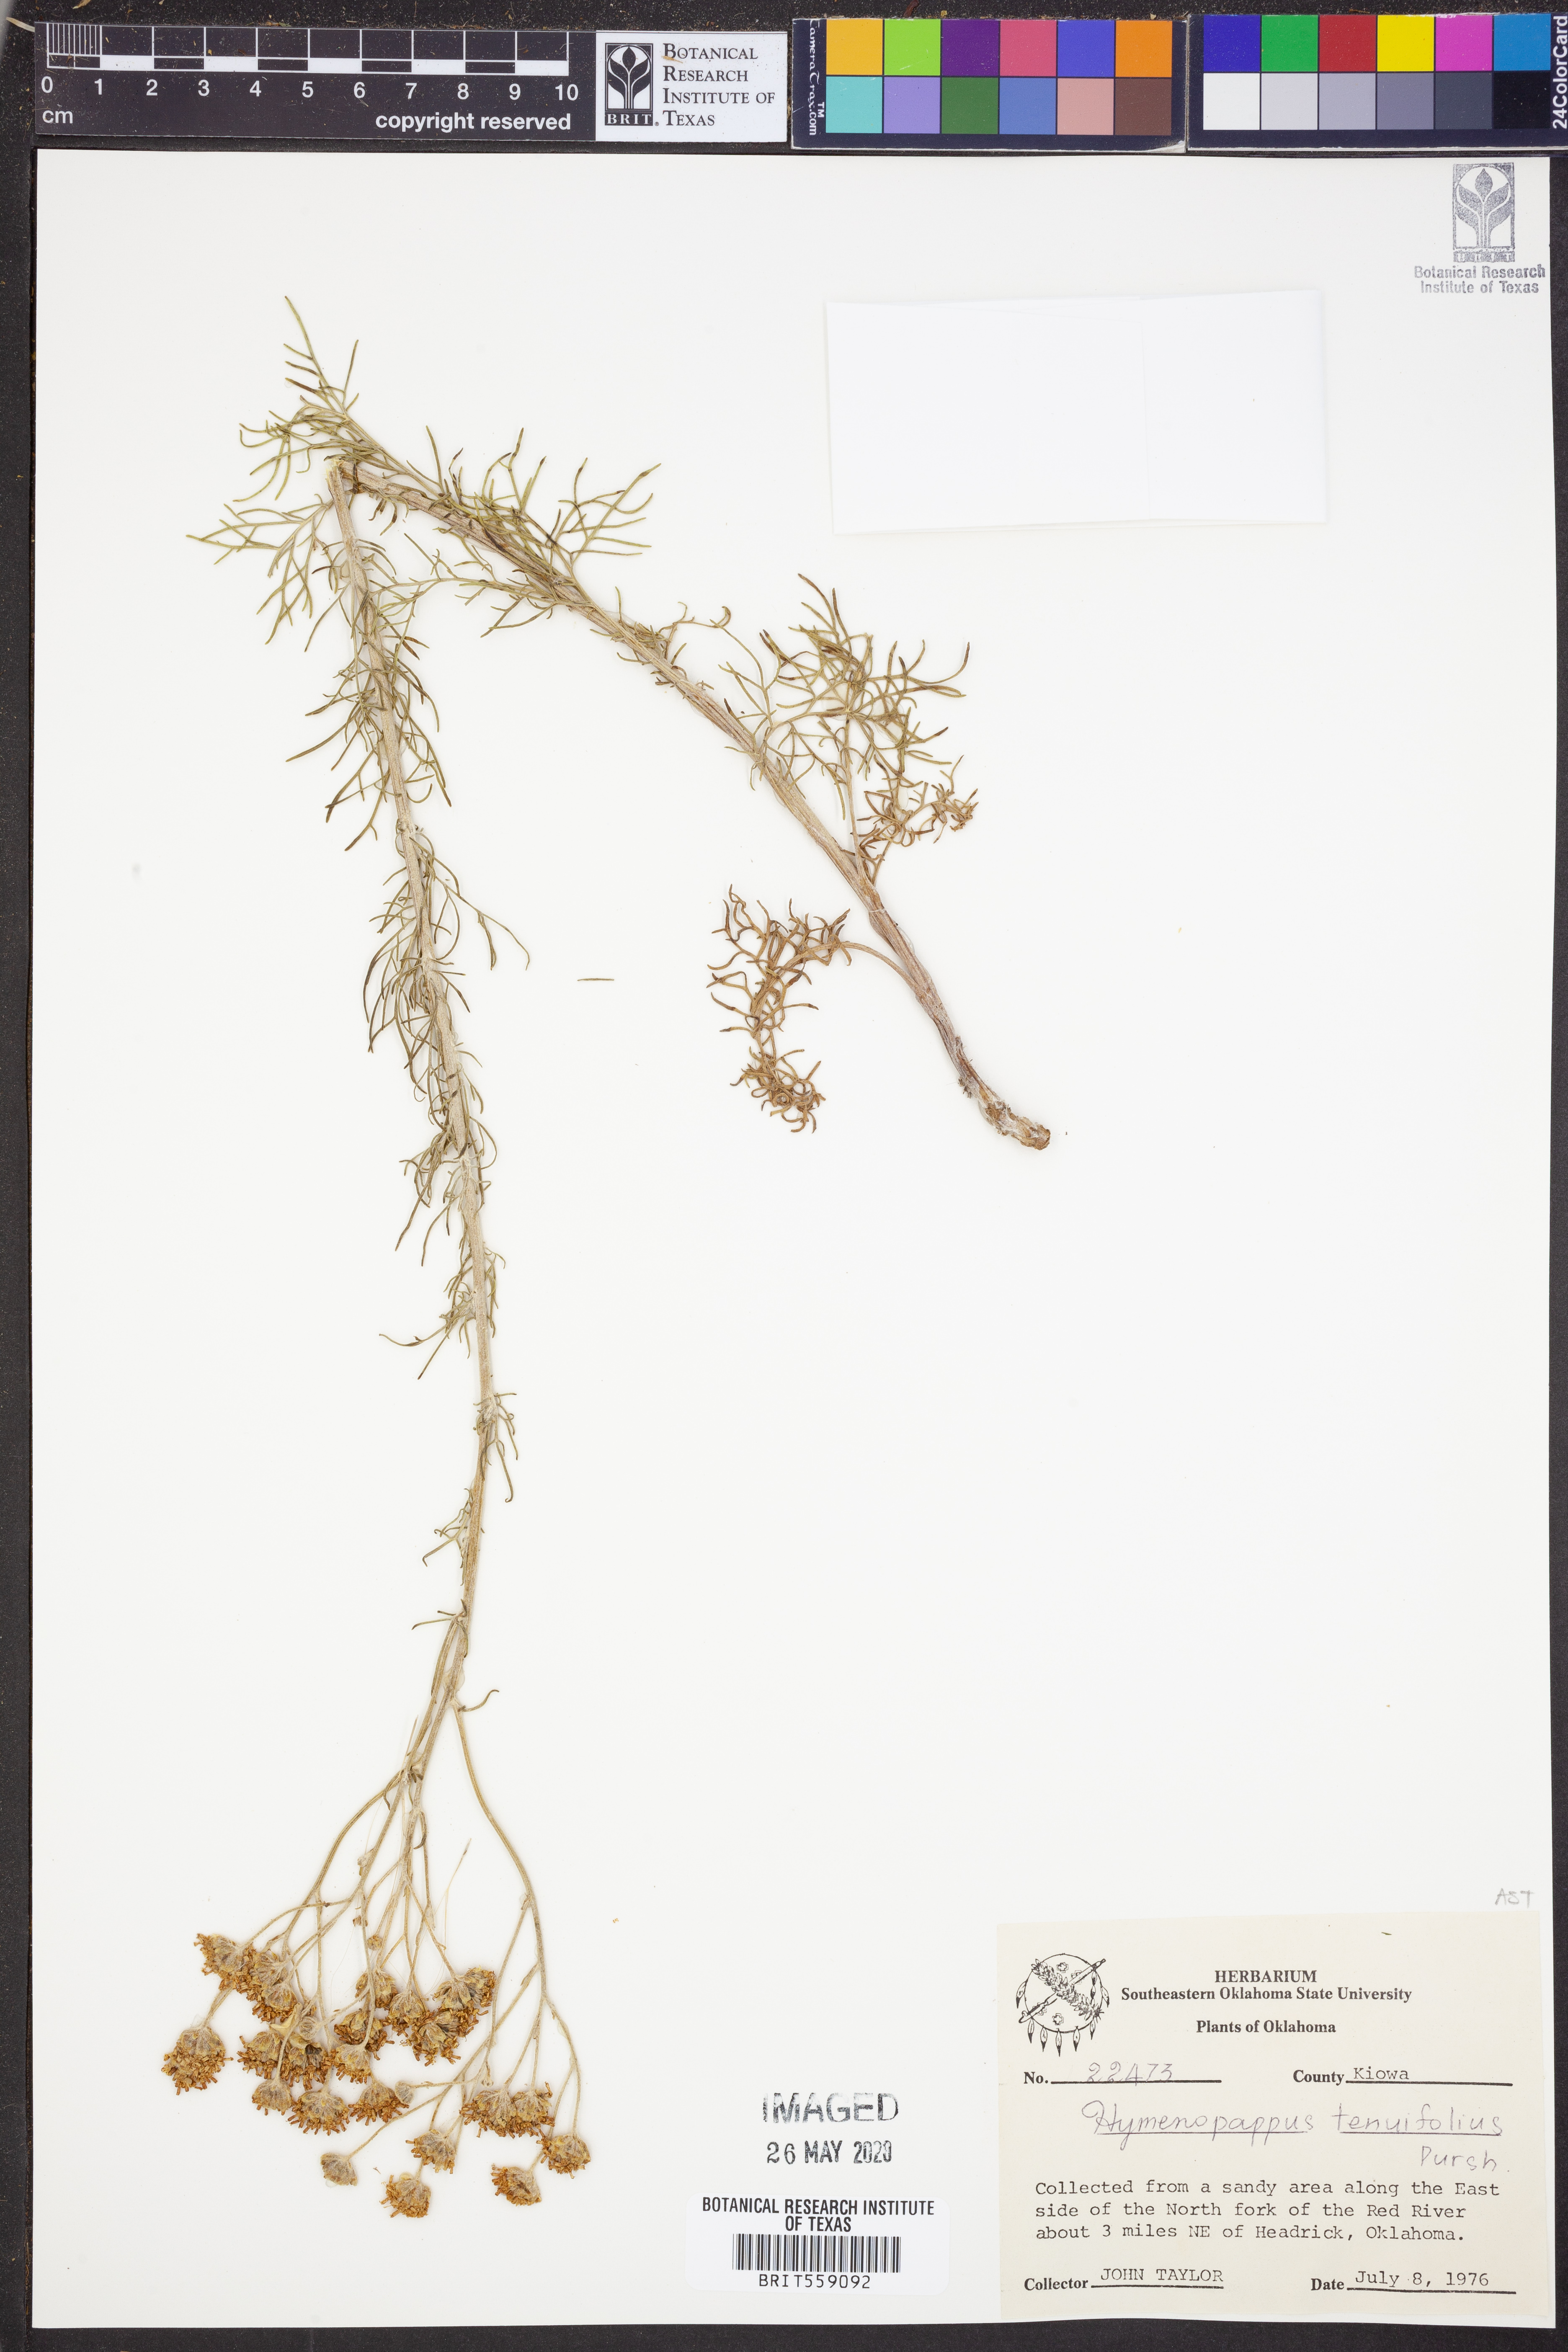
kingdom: Plantae
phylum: Tracheophyta
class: Magnoliopsida
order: Asterales
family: Asteraceae
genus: Hymenopappus
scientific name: Hymenopappus tenuifolius
